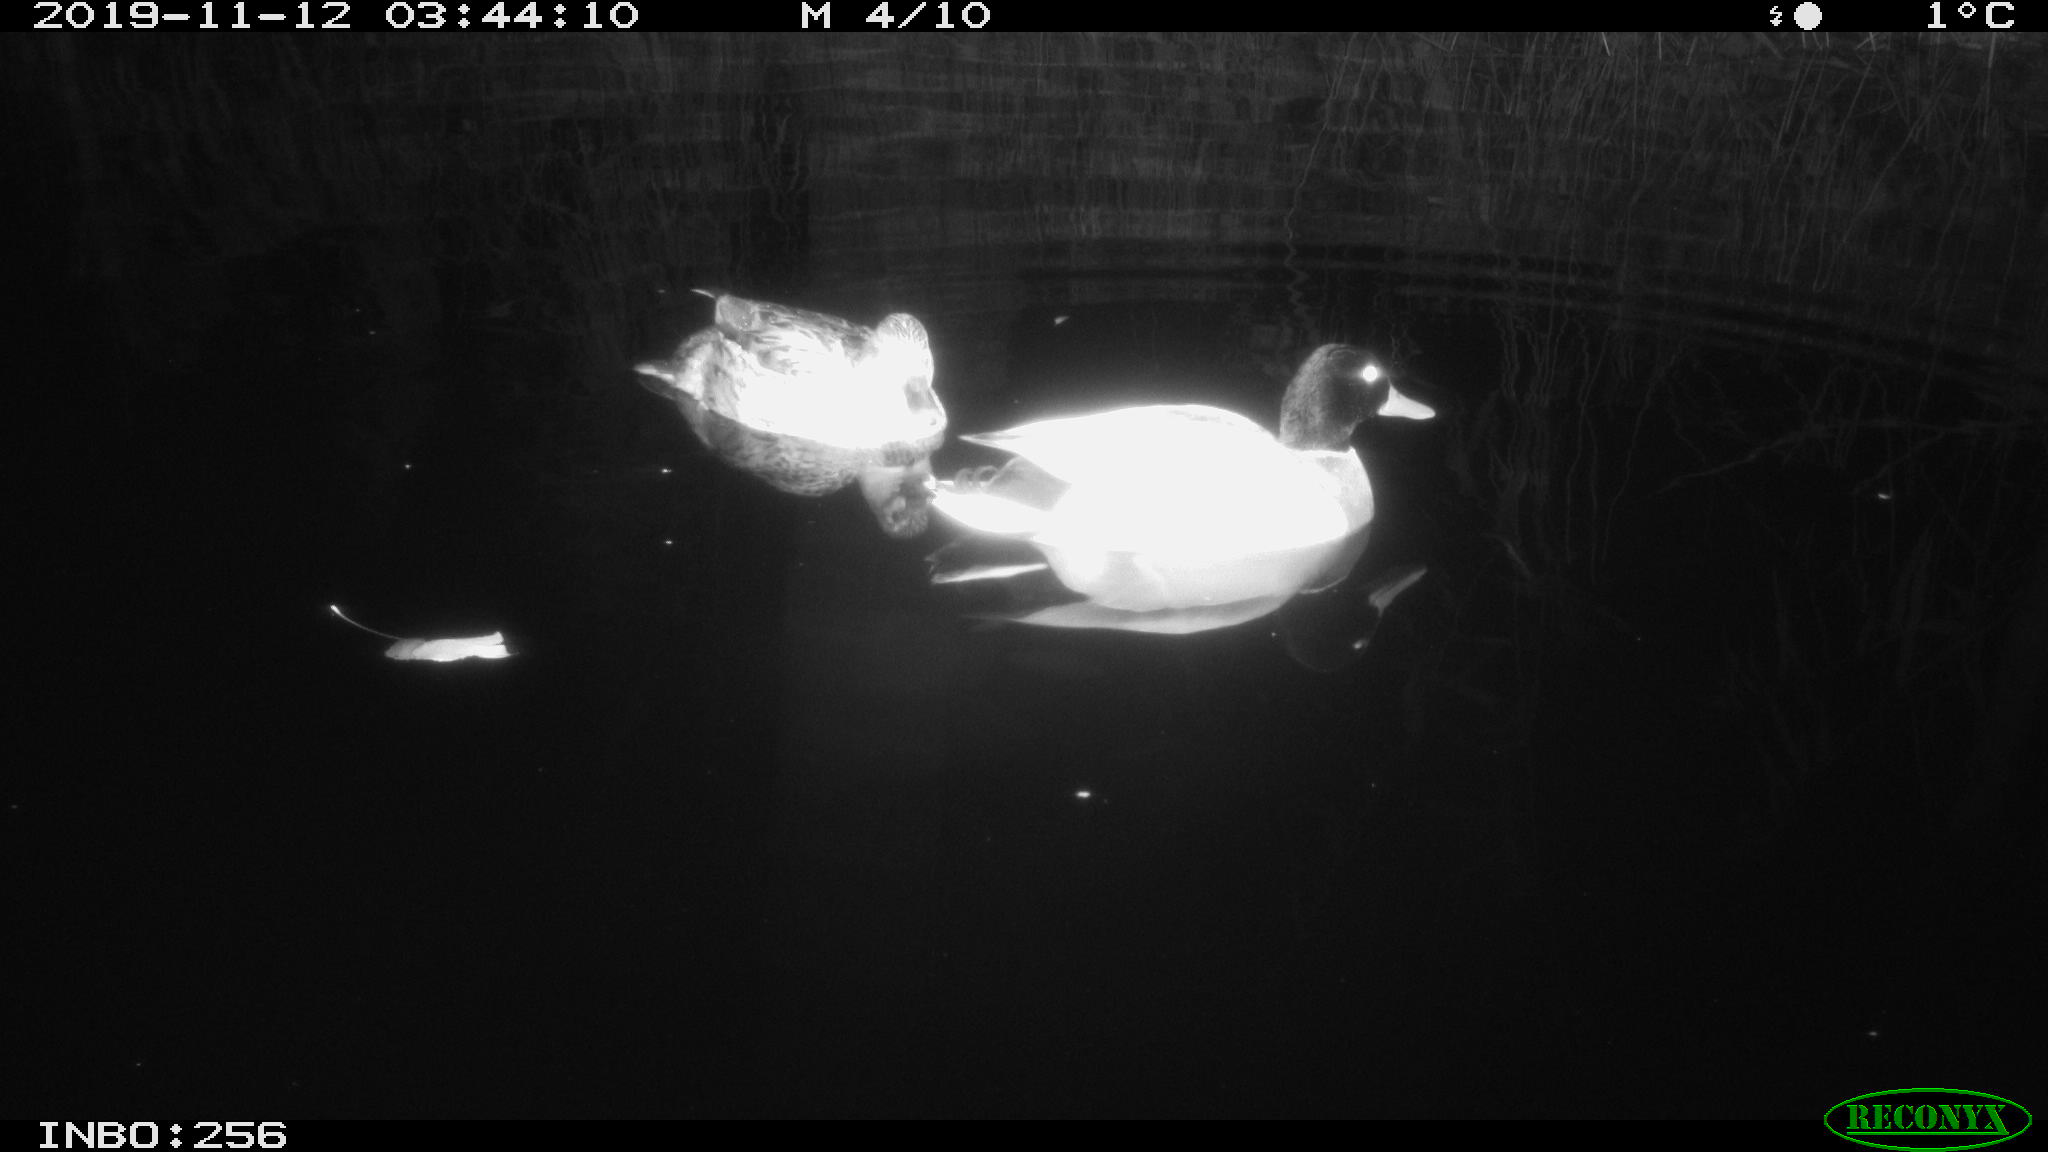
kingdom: Animalia
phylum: Chordata
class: Aves
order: Anseriformes
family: Anatidae
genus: Anas
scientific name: Anas platyrhynchos
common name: Mallard
